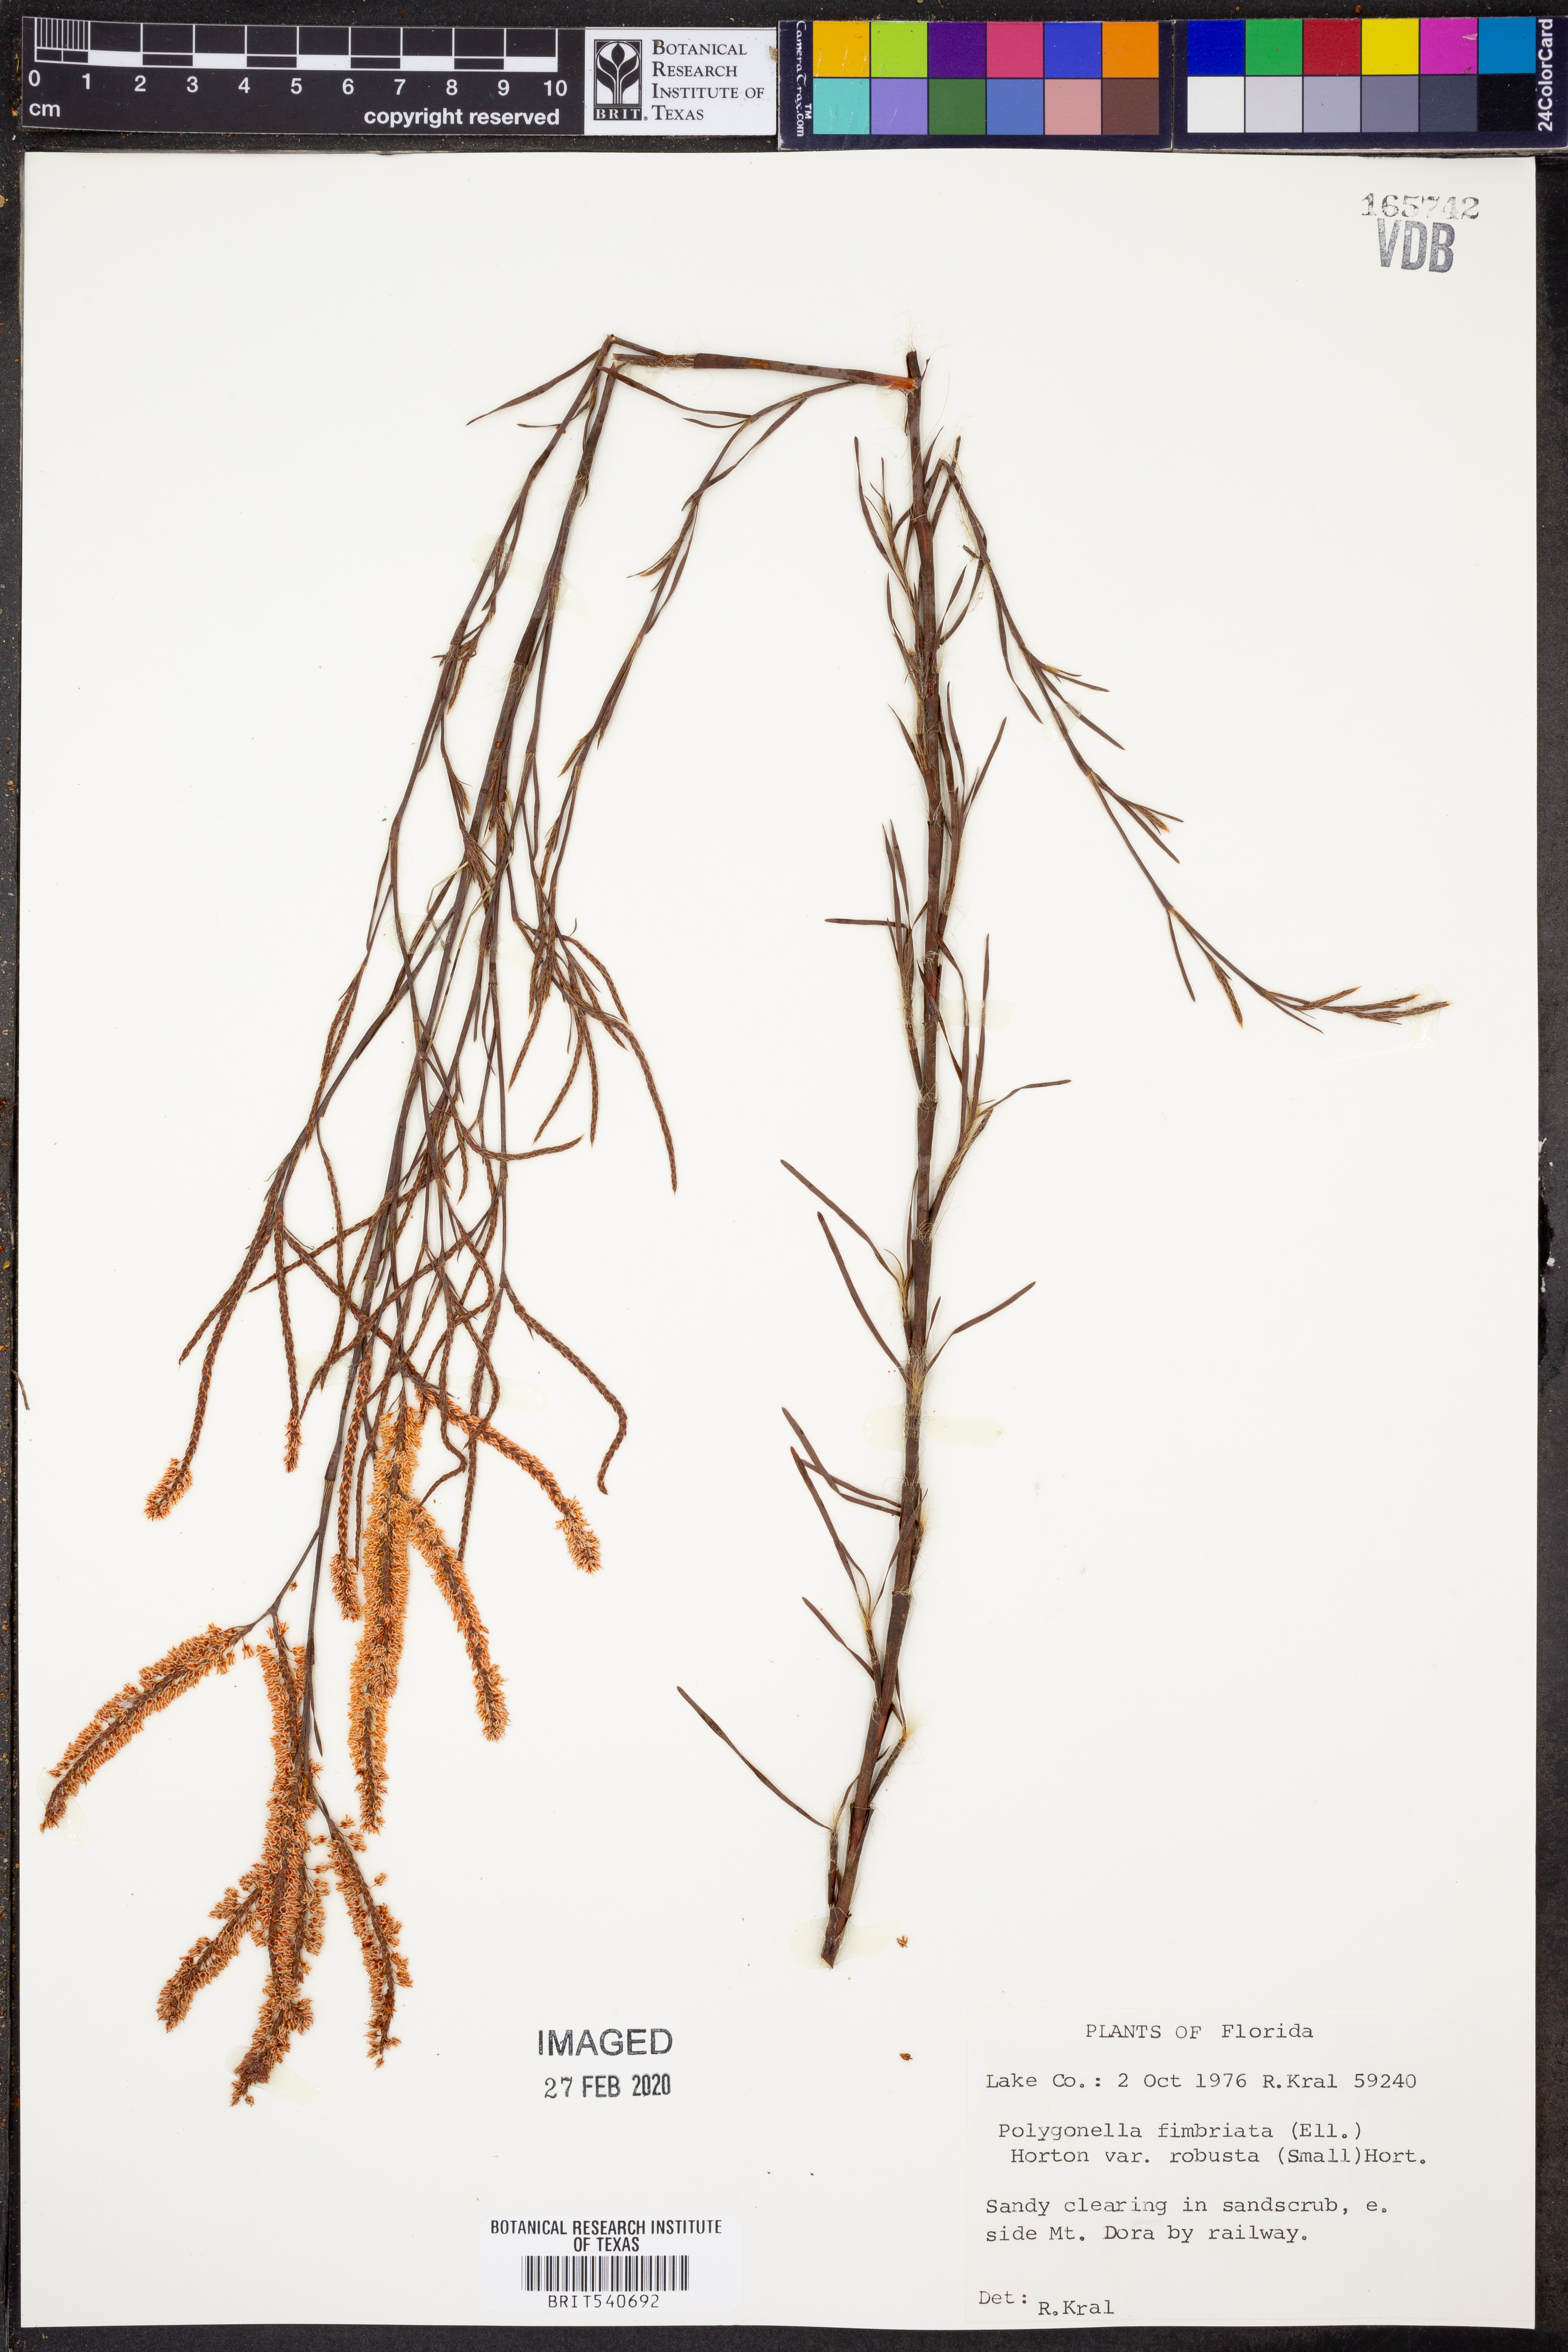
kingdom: Plantae
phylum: Tracheophyta
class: Magnoliopsida
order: Caryophyllales
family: Polygonaceae
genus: Polygonella
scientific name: Polygonella robusta
